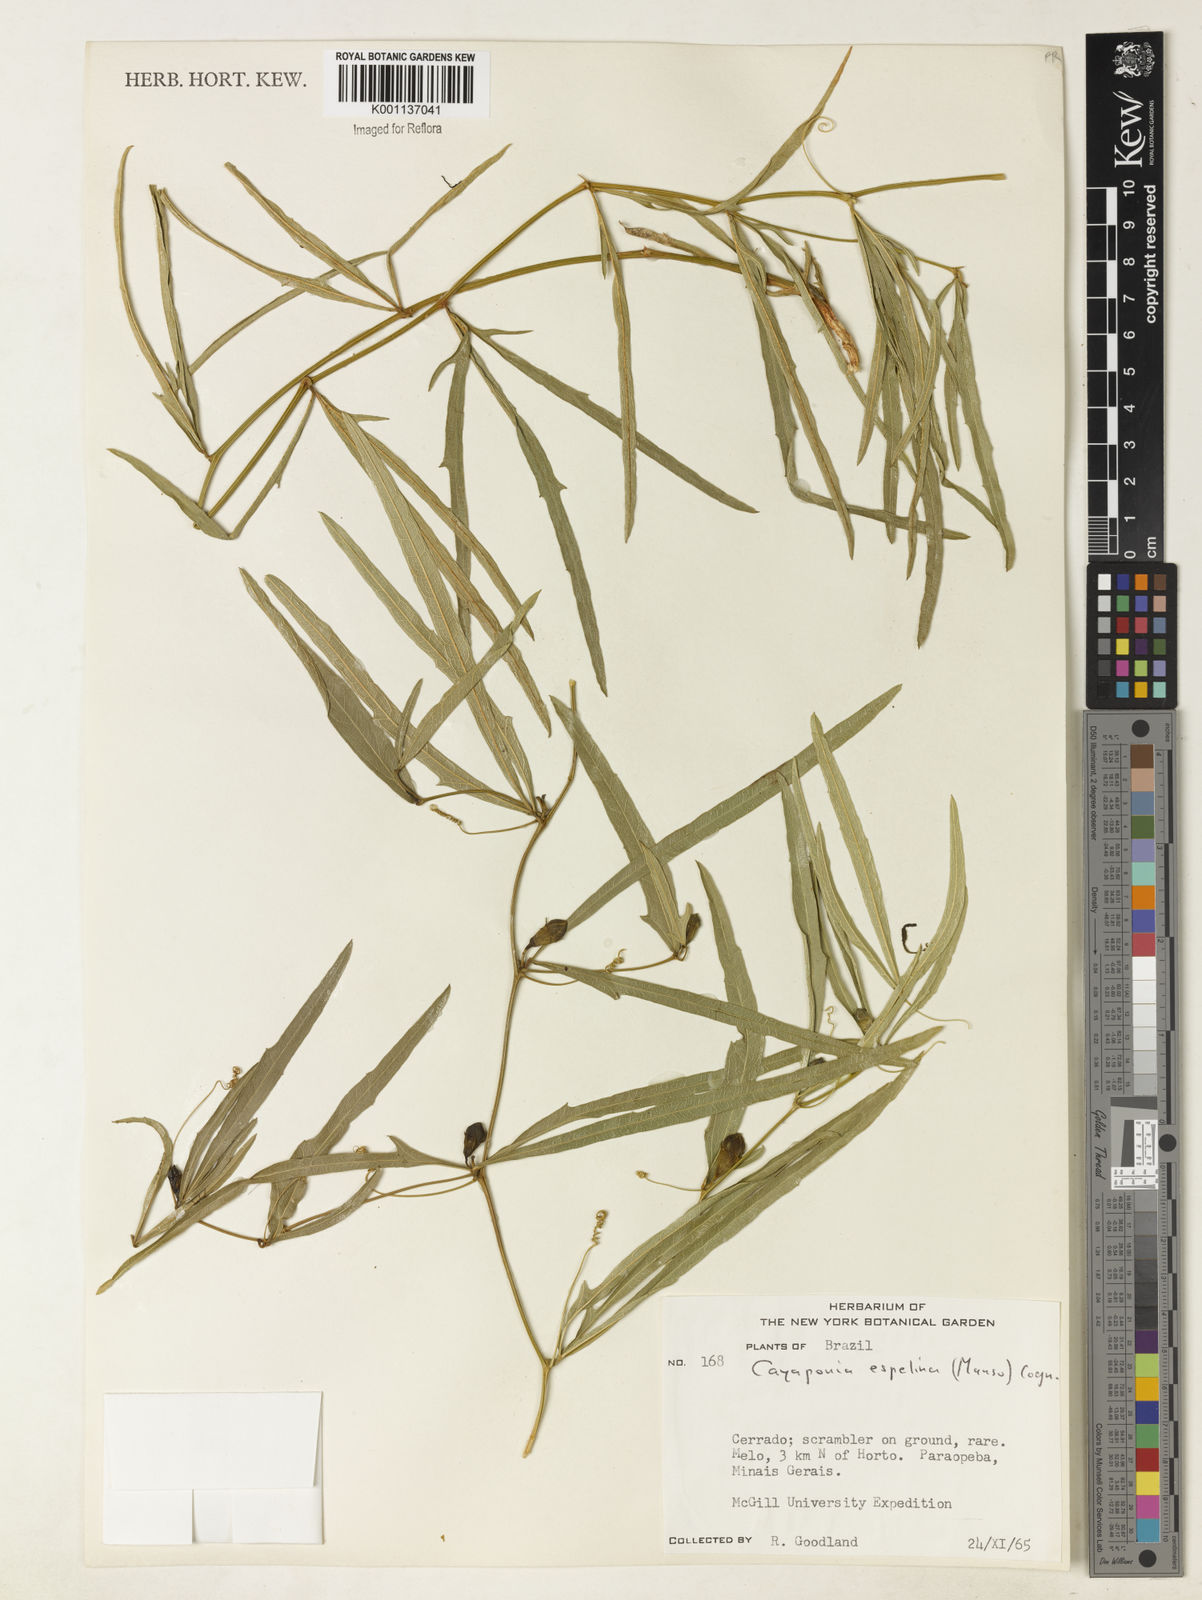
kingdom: Plantae
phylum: Tracheophyta
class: Magnoliopsida
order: Cucurbitales
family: Cucurbitaceae
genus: Cayaponia
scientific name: Cayaponia espelina
